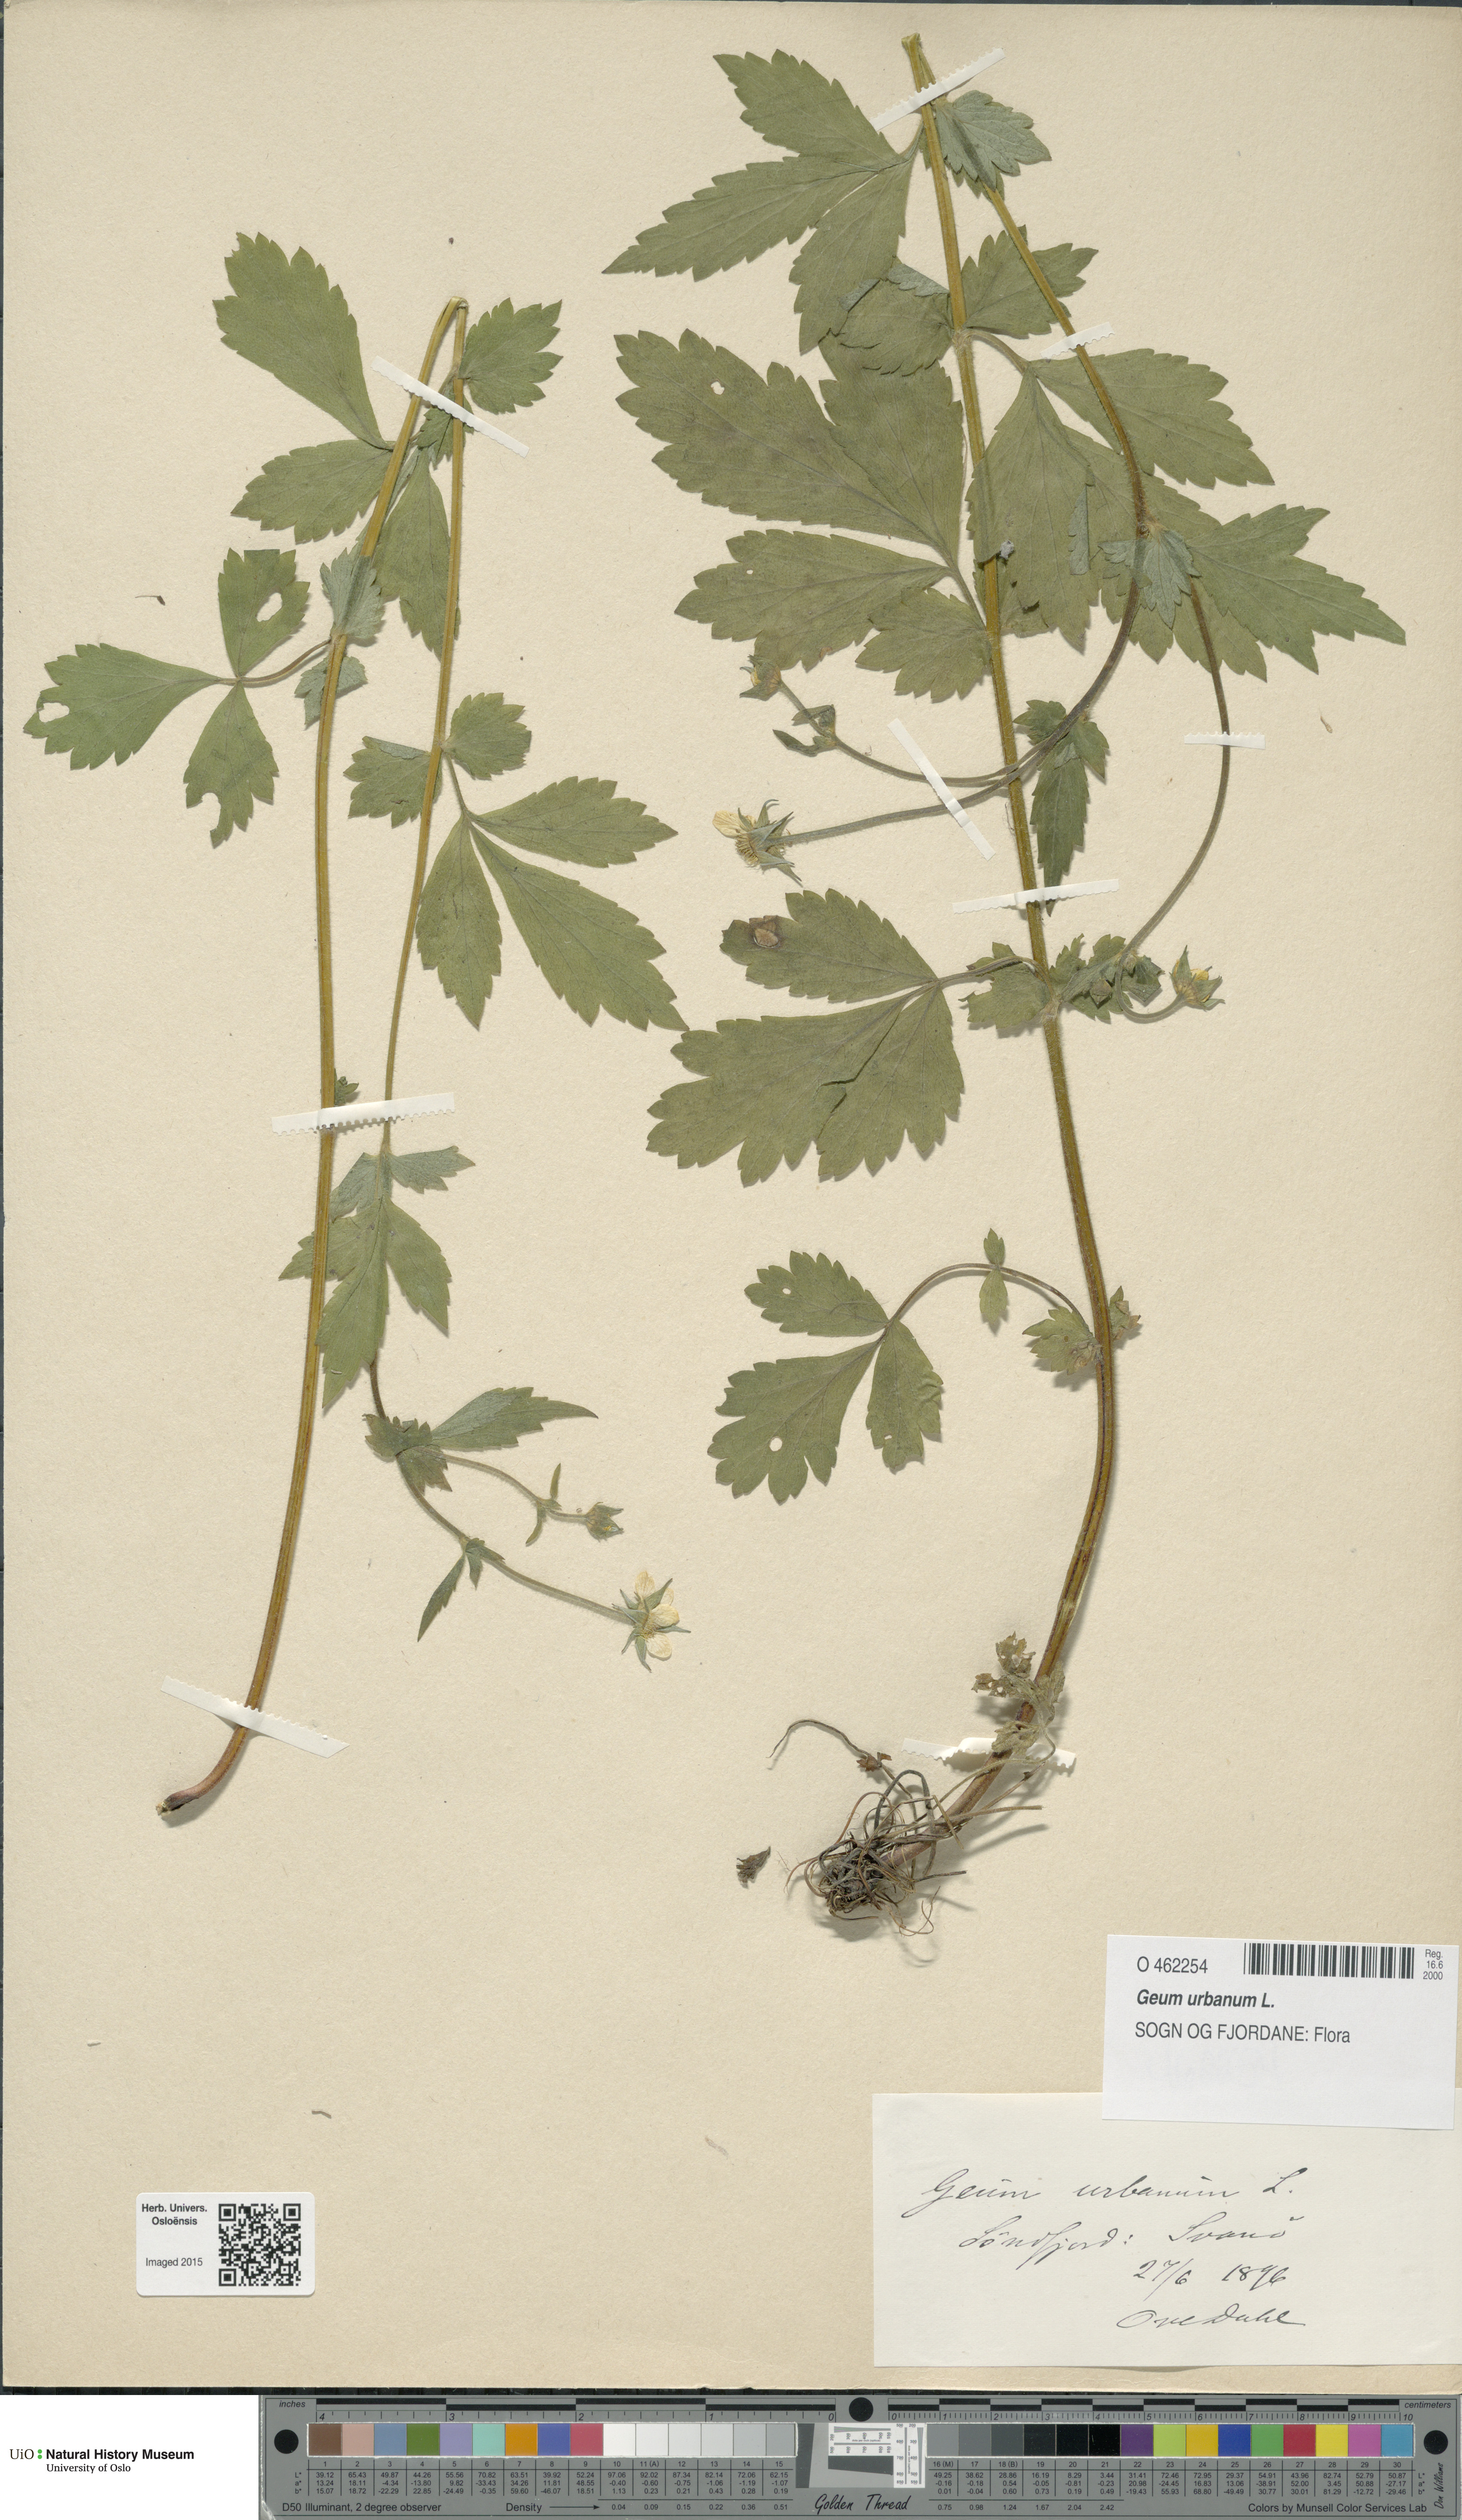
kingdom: Plantae
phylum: Tracheophyta
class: Magnoliopsida
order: Rosales
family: Rosaceae
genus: Geum
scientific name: Geum urbanum
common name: Wood avens
